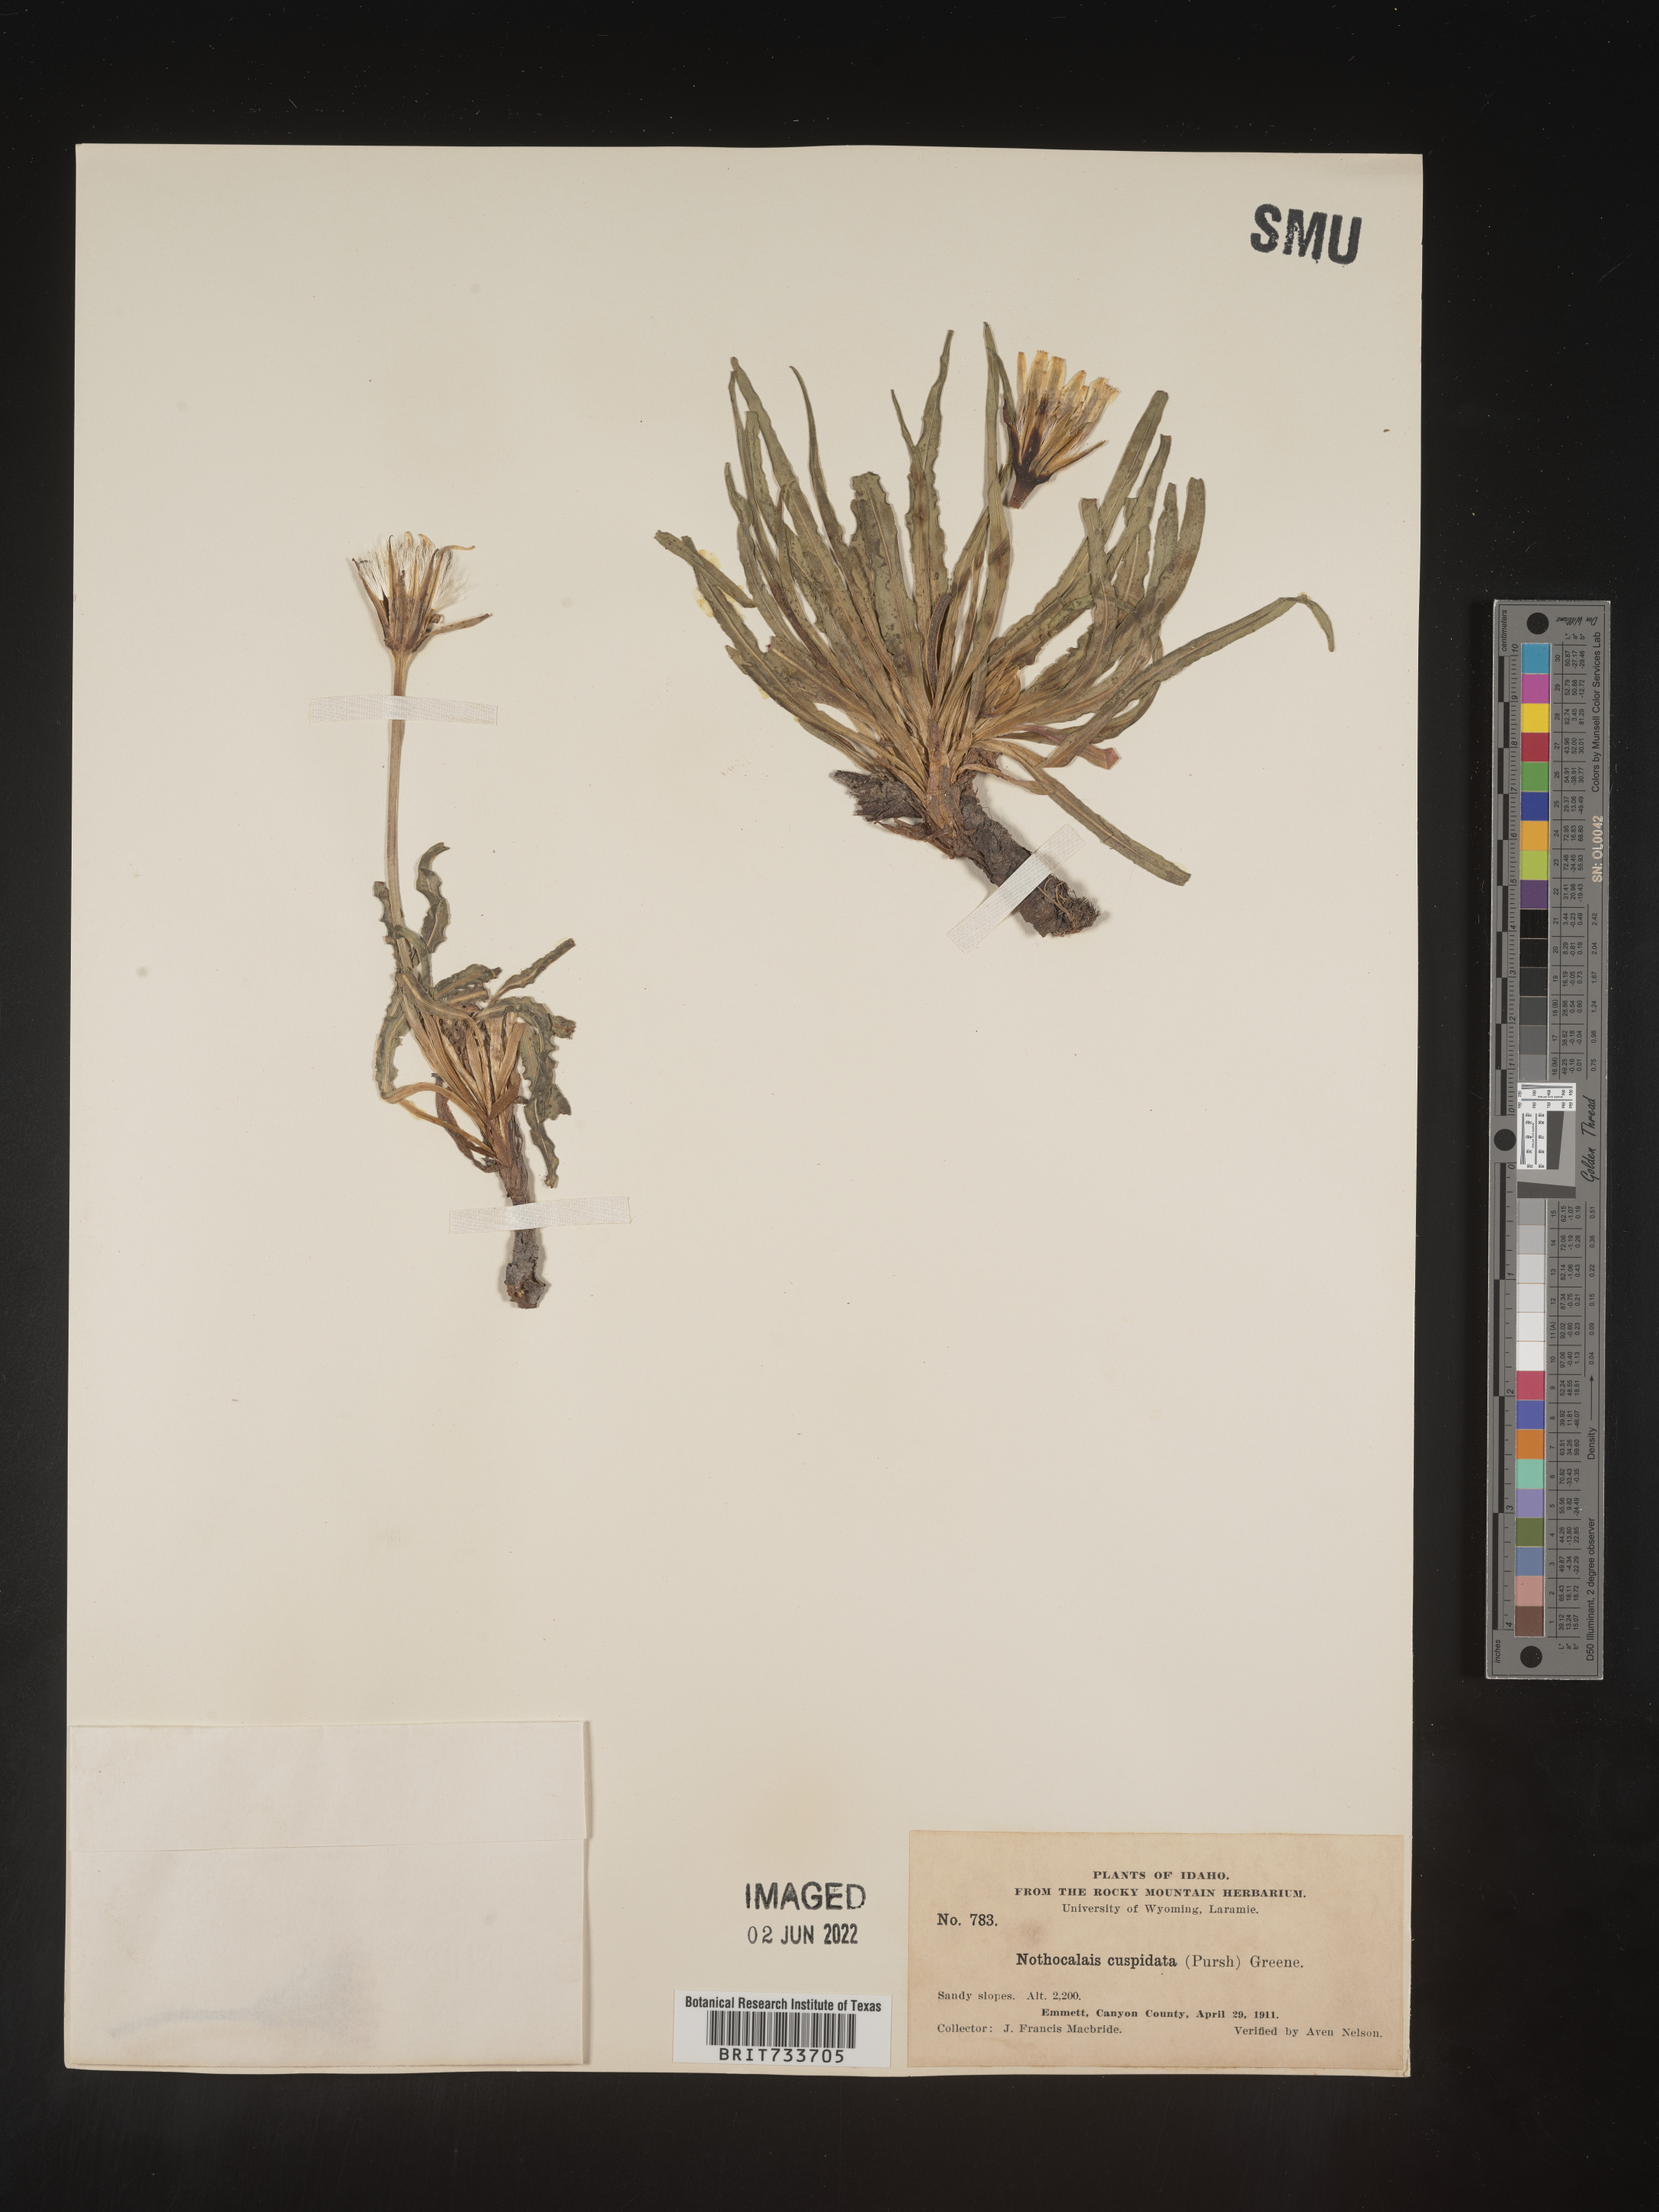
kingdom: Plantae
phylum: Tracheophyta
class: Magnoliopsida
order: Asterales
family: Asteraceae
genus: Microseris
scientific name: Microseris
